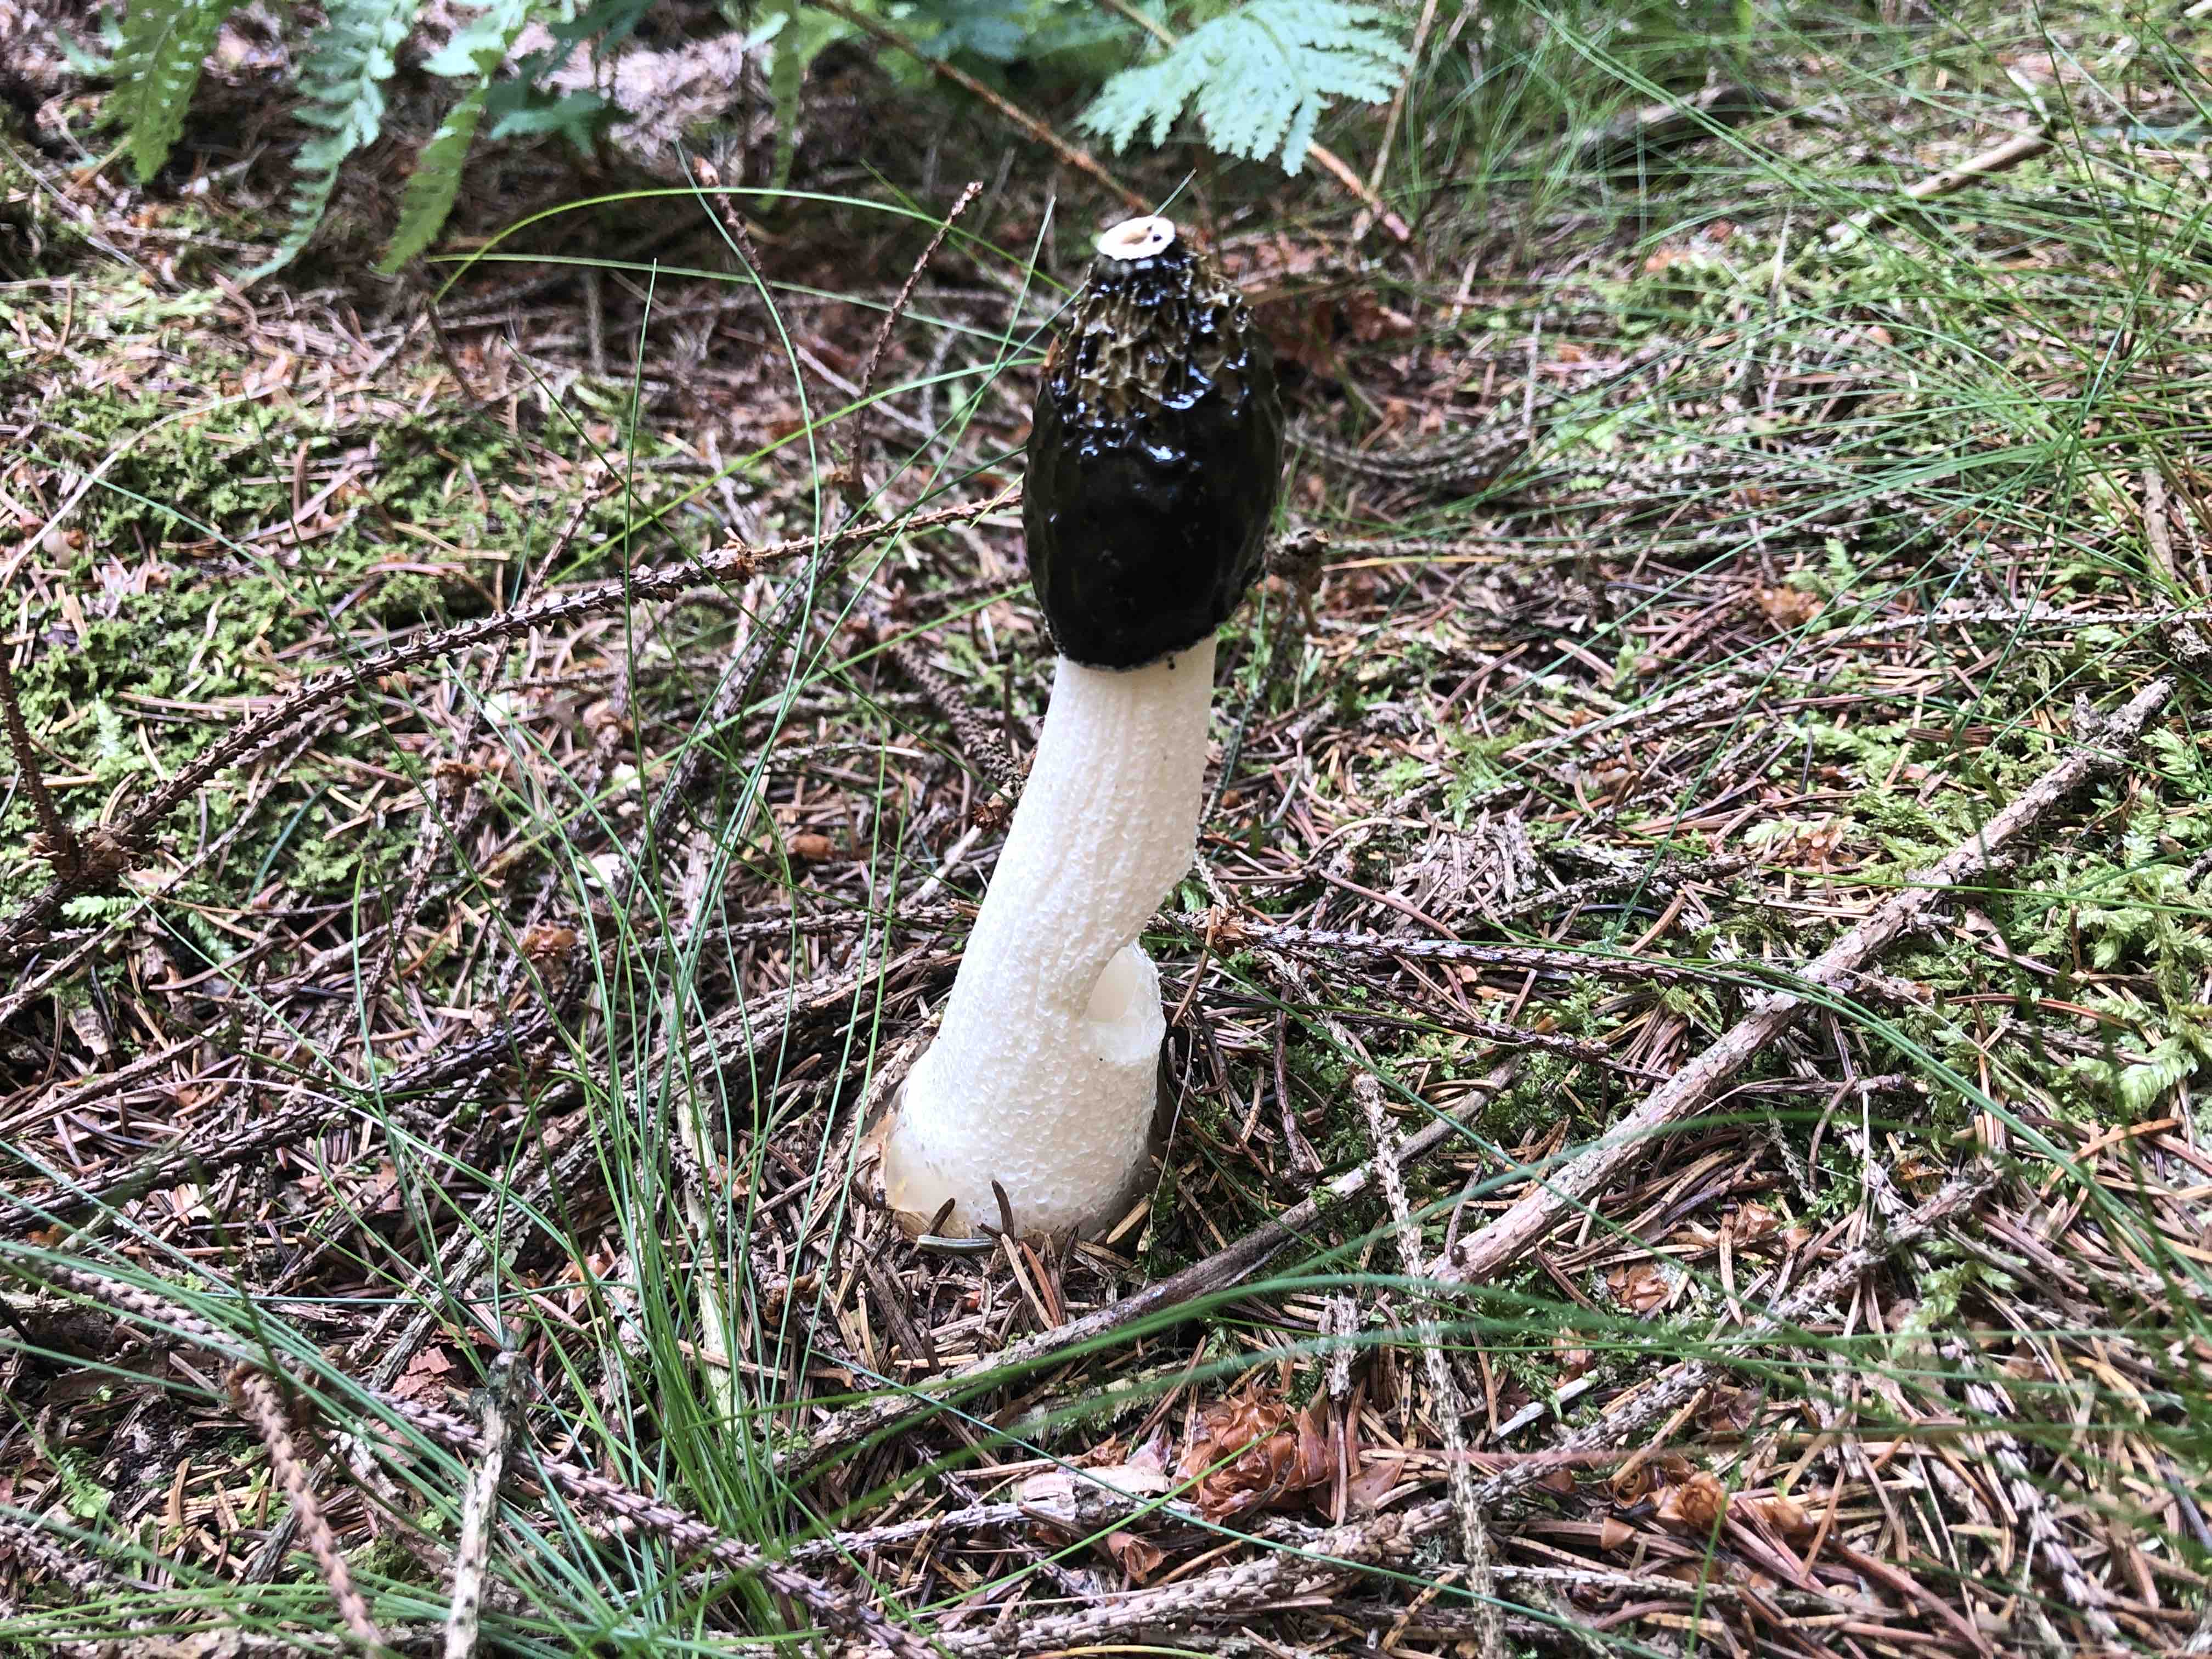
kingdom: Fungi
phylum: Basidiomycota
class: Agaricomycetes
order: Phallales
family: Phallaceae
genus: Phallus
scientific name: Phallus impudicus
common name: almindelig stinksvamp
